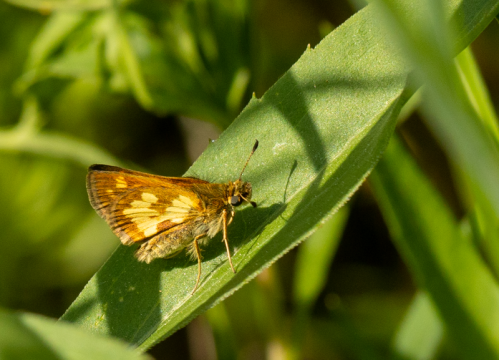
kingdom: Animalia
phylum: Arthropoda
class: Insecta
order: Lepidoptera
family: Hesperiidae
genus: Polites
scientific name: Polites coras
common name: Peck's Skipper
